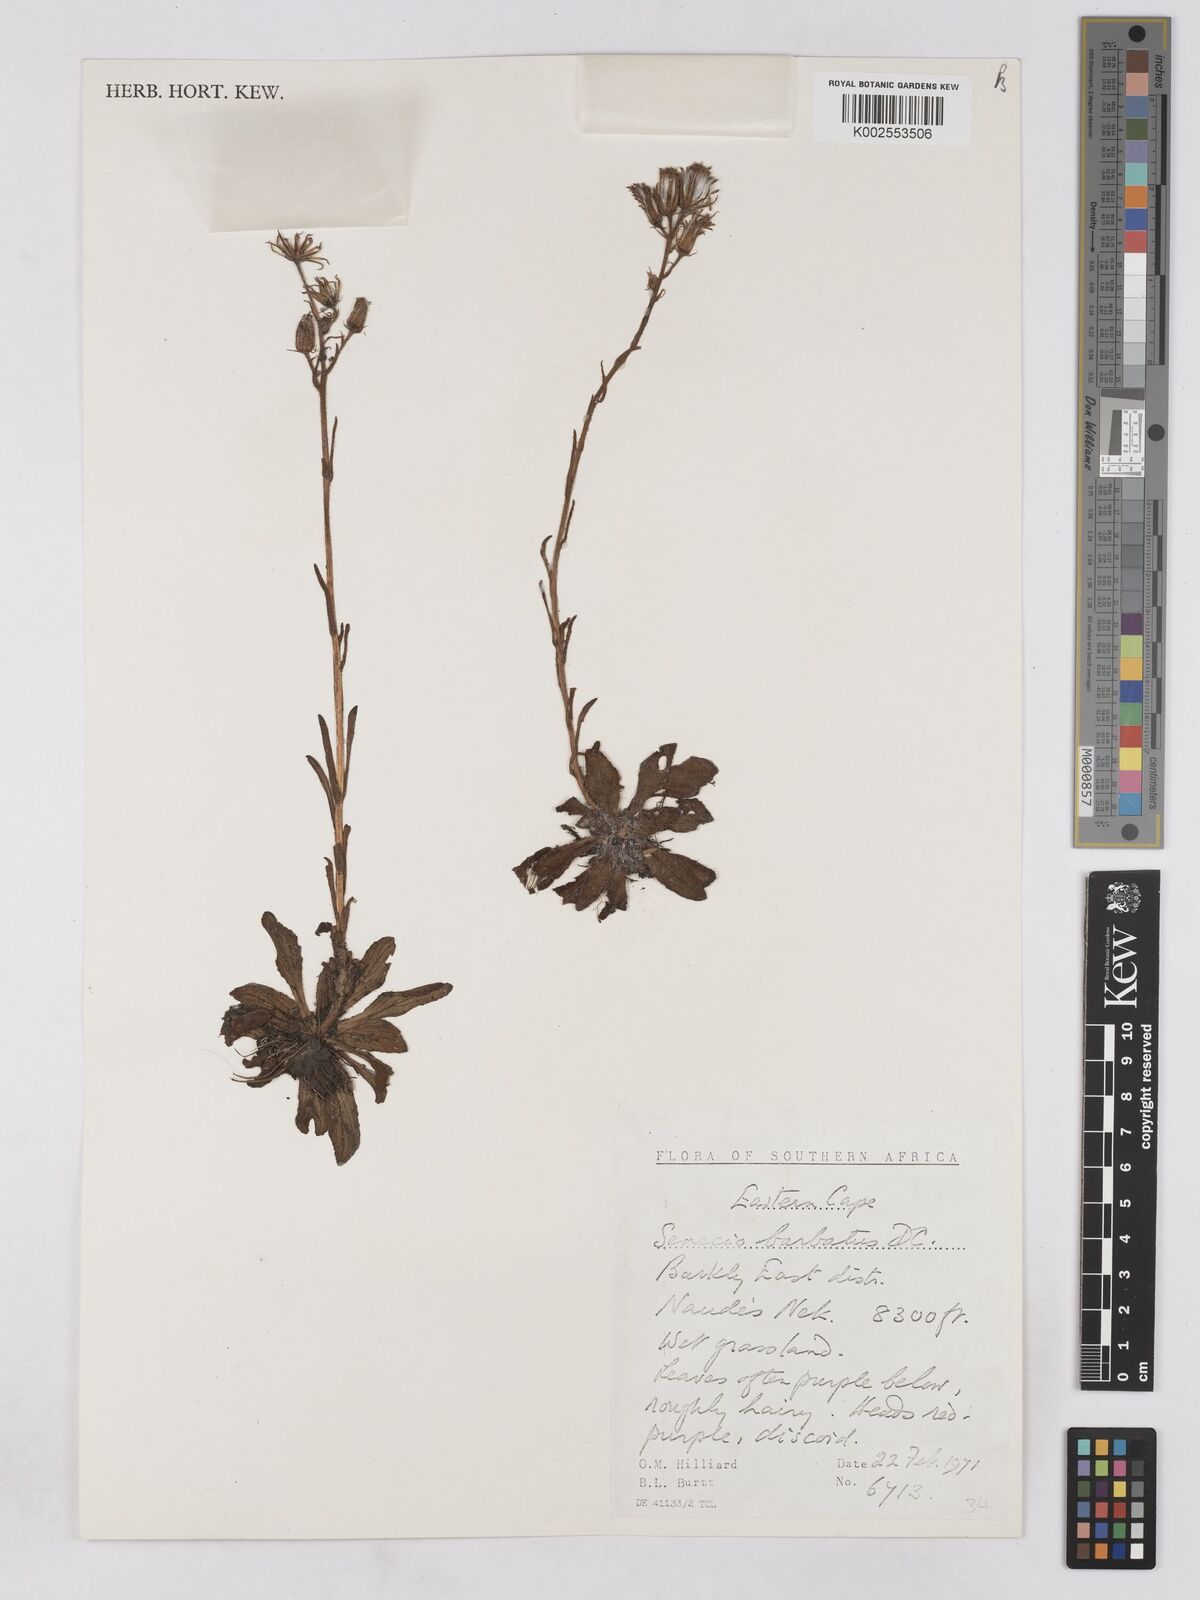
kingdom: Plantae
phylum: Tracheophyta
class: Magnoliopsida
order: Asterales
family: Asteraceae
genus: Senecio
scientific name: Senecio barbatus
